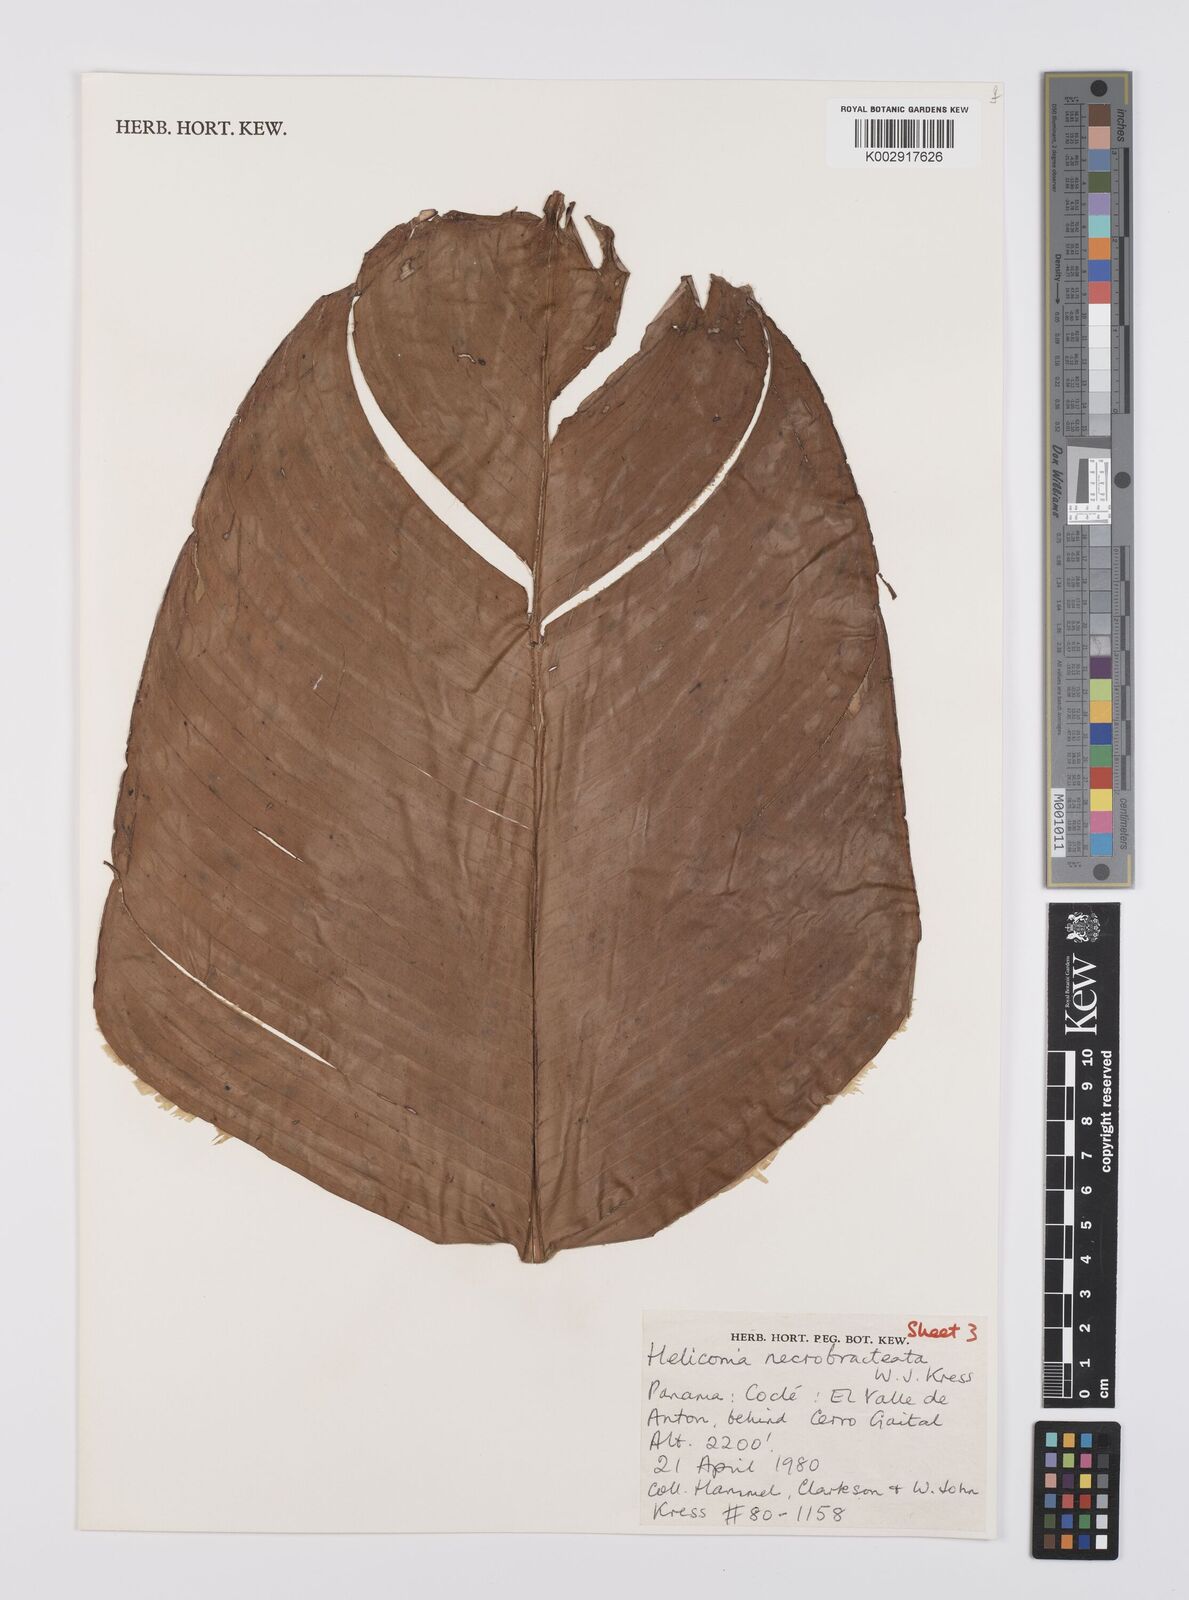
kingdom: Plantae
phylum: Tracheophyta
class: Liliopsida
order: Zingiberales
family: Heliconiaceae
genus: Heliconia
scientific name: Heliconia necrobracteata
